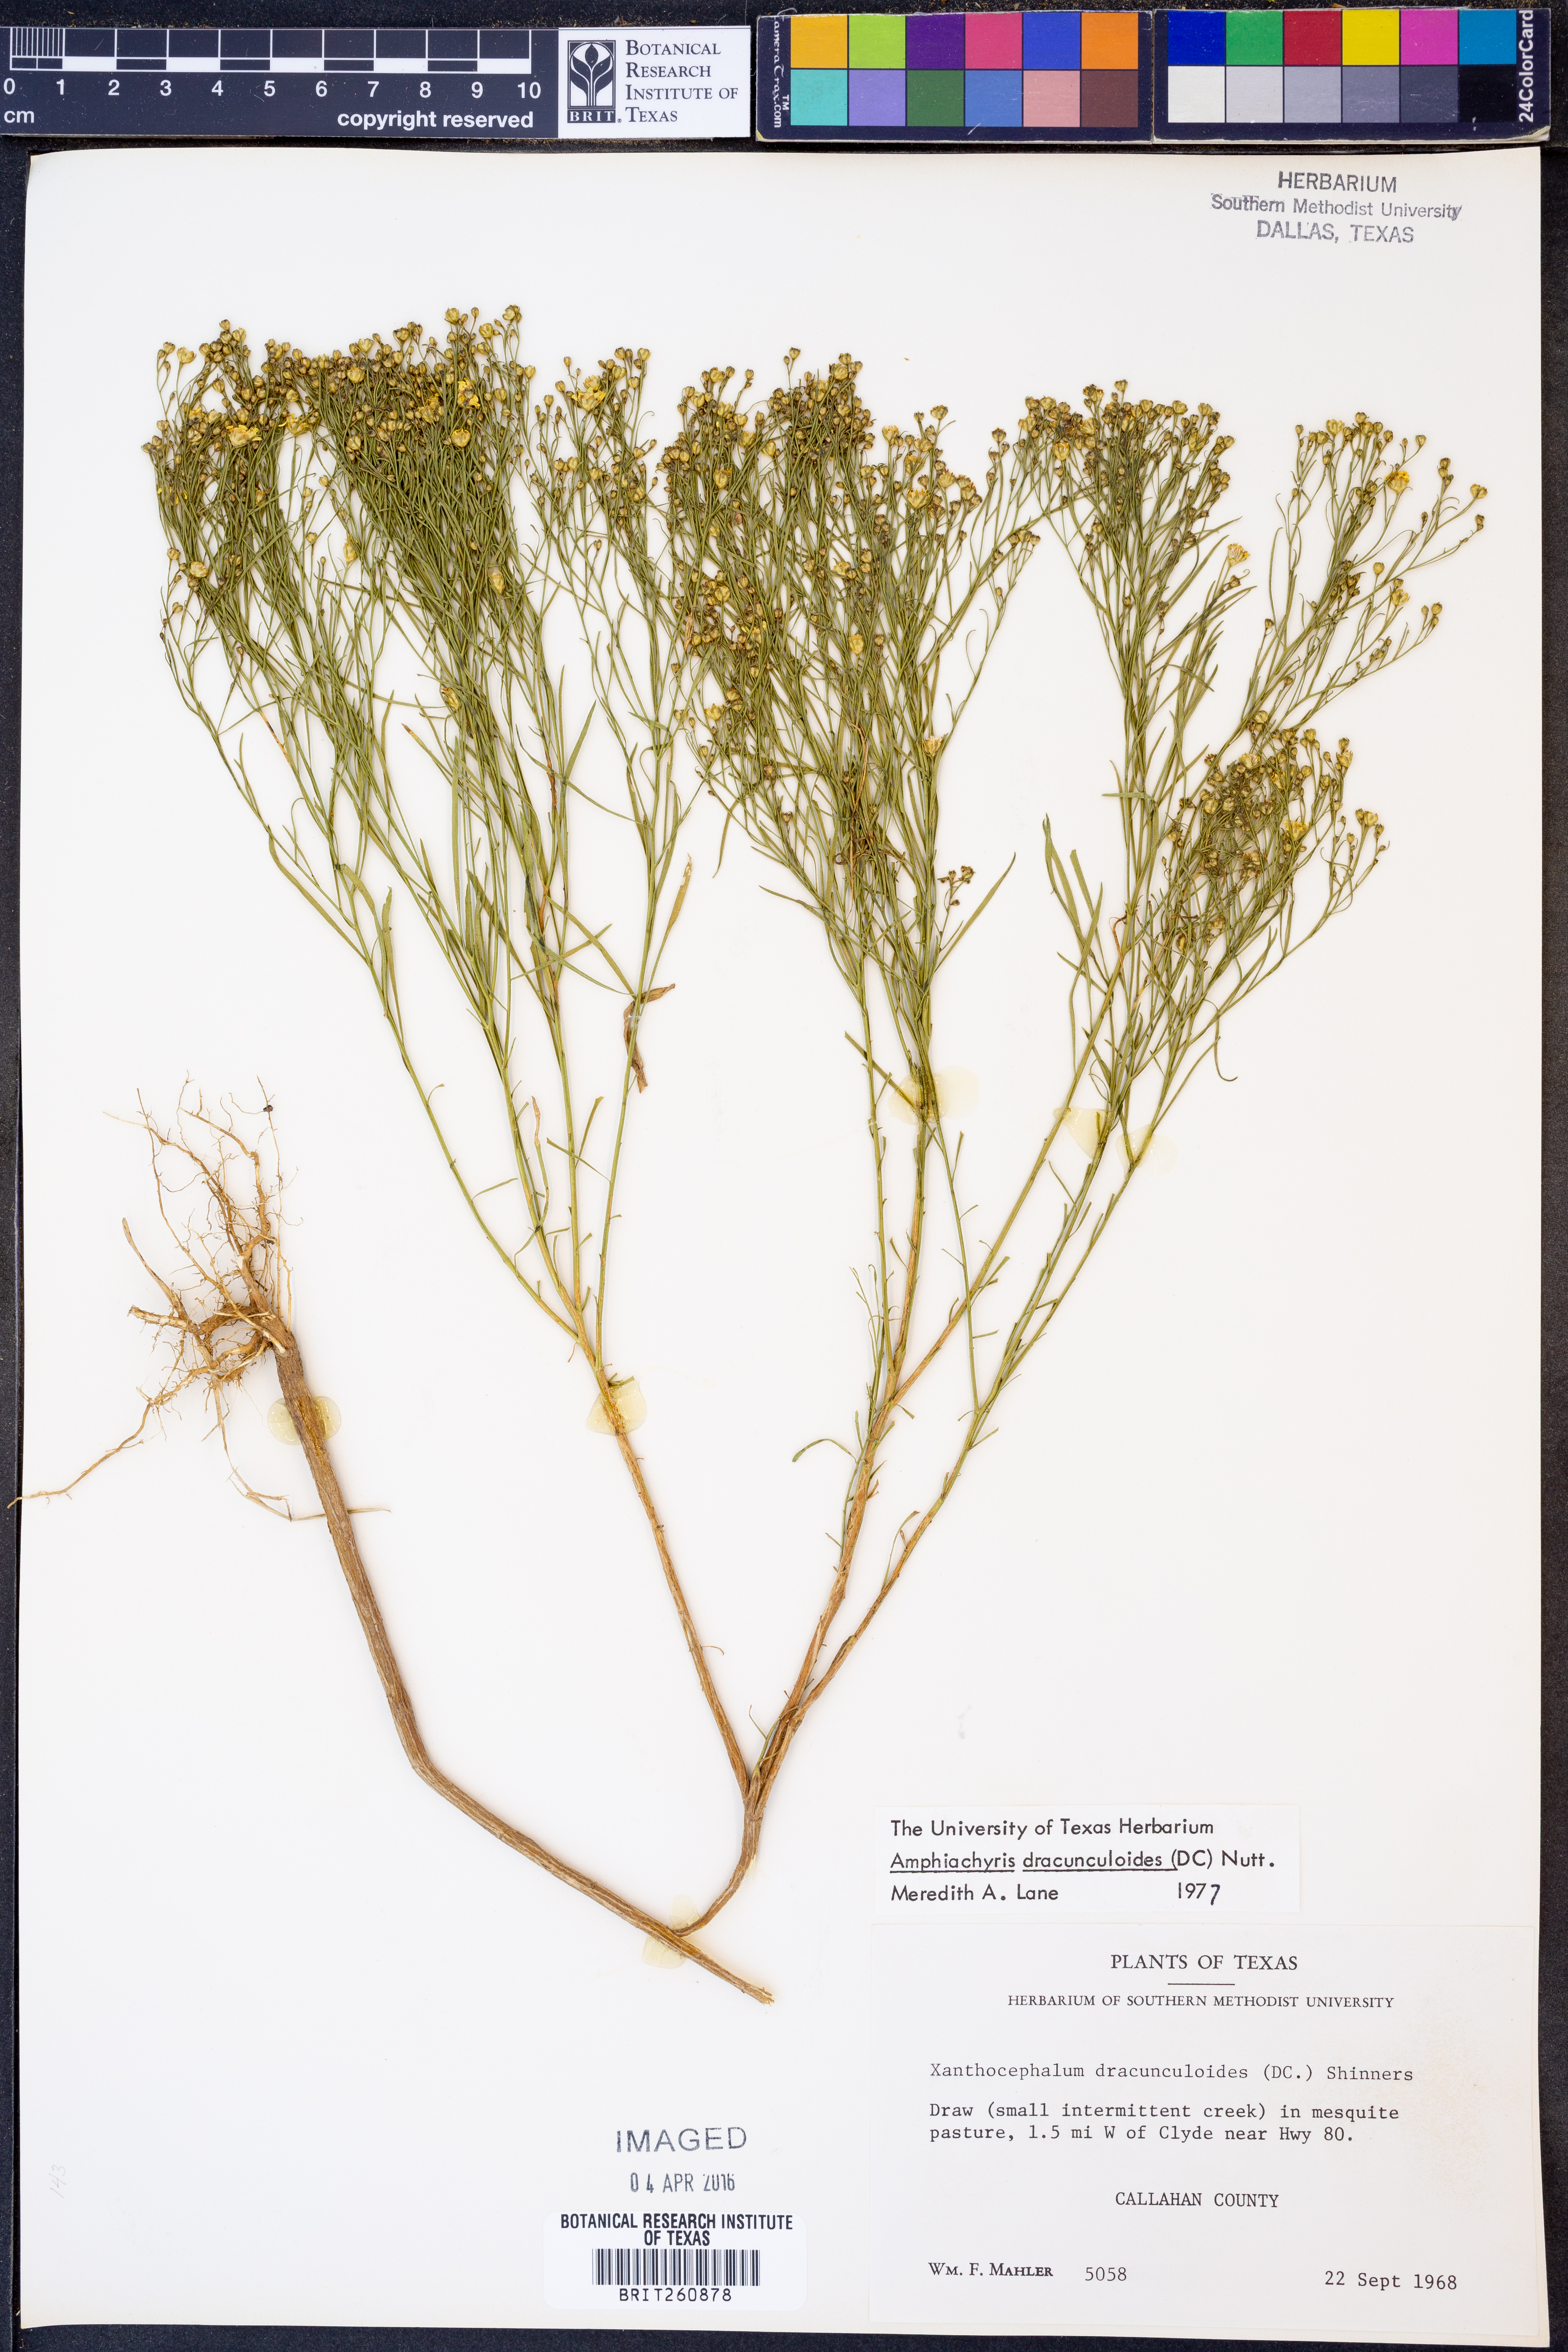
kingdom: Plantae
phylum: Tracheophyta
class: Magnoliopsida
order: Asterales
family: Asteraceae
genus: Amphiachyris
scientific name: Amphiachyris dracunculoides
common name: Broomweed
